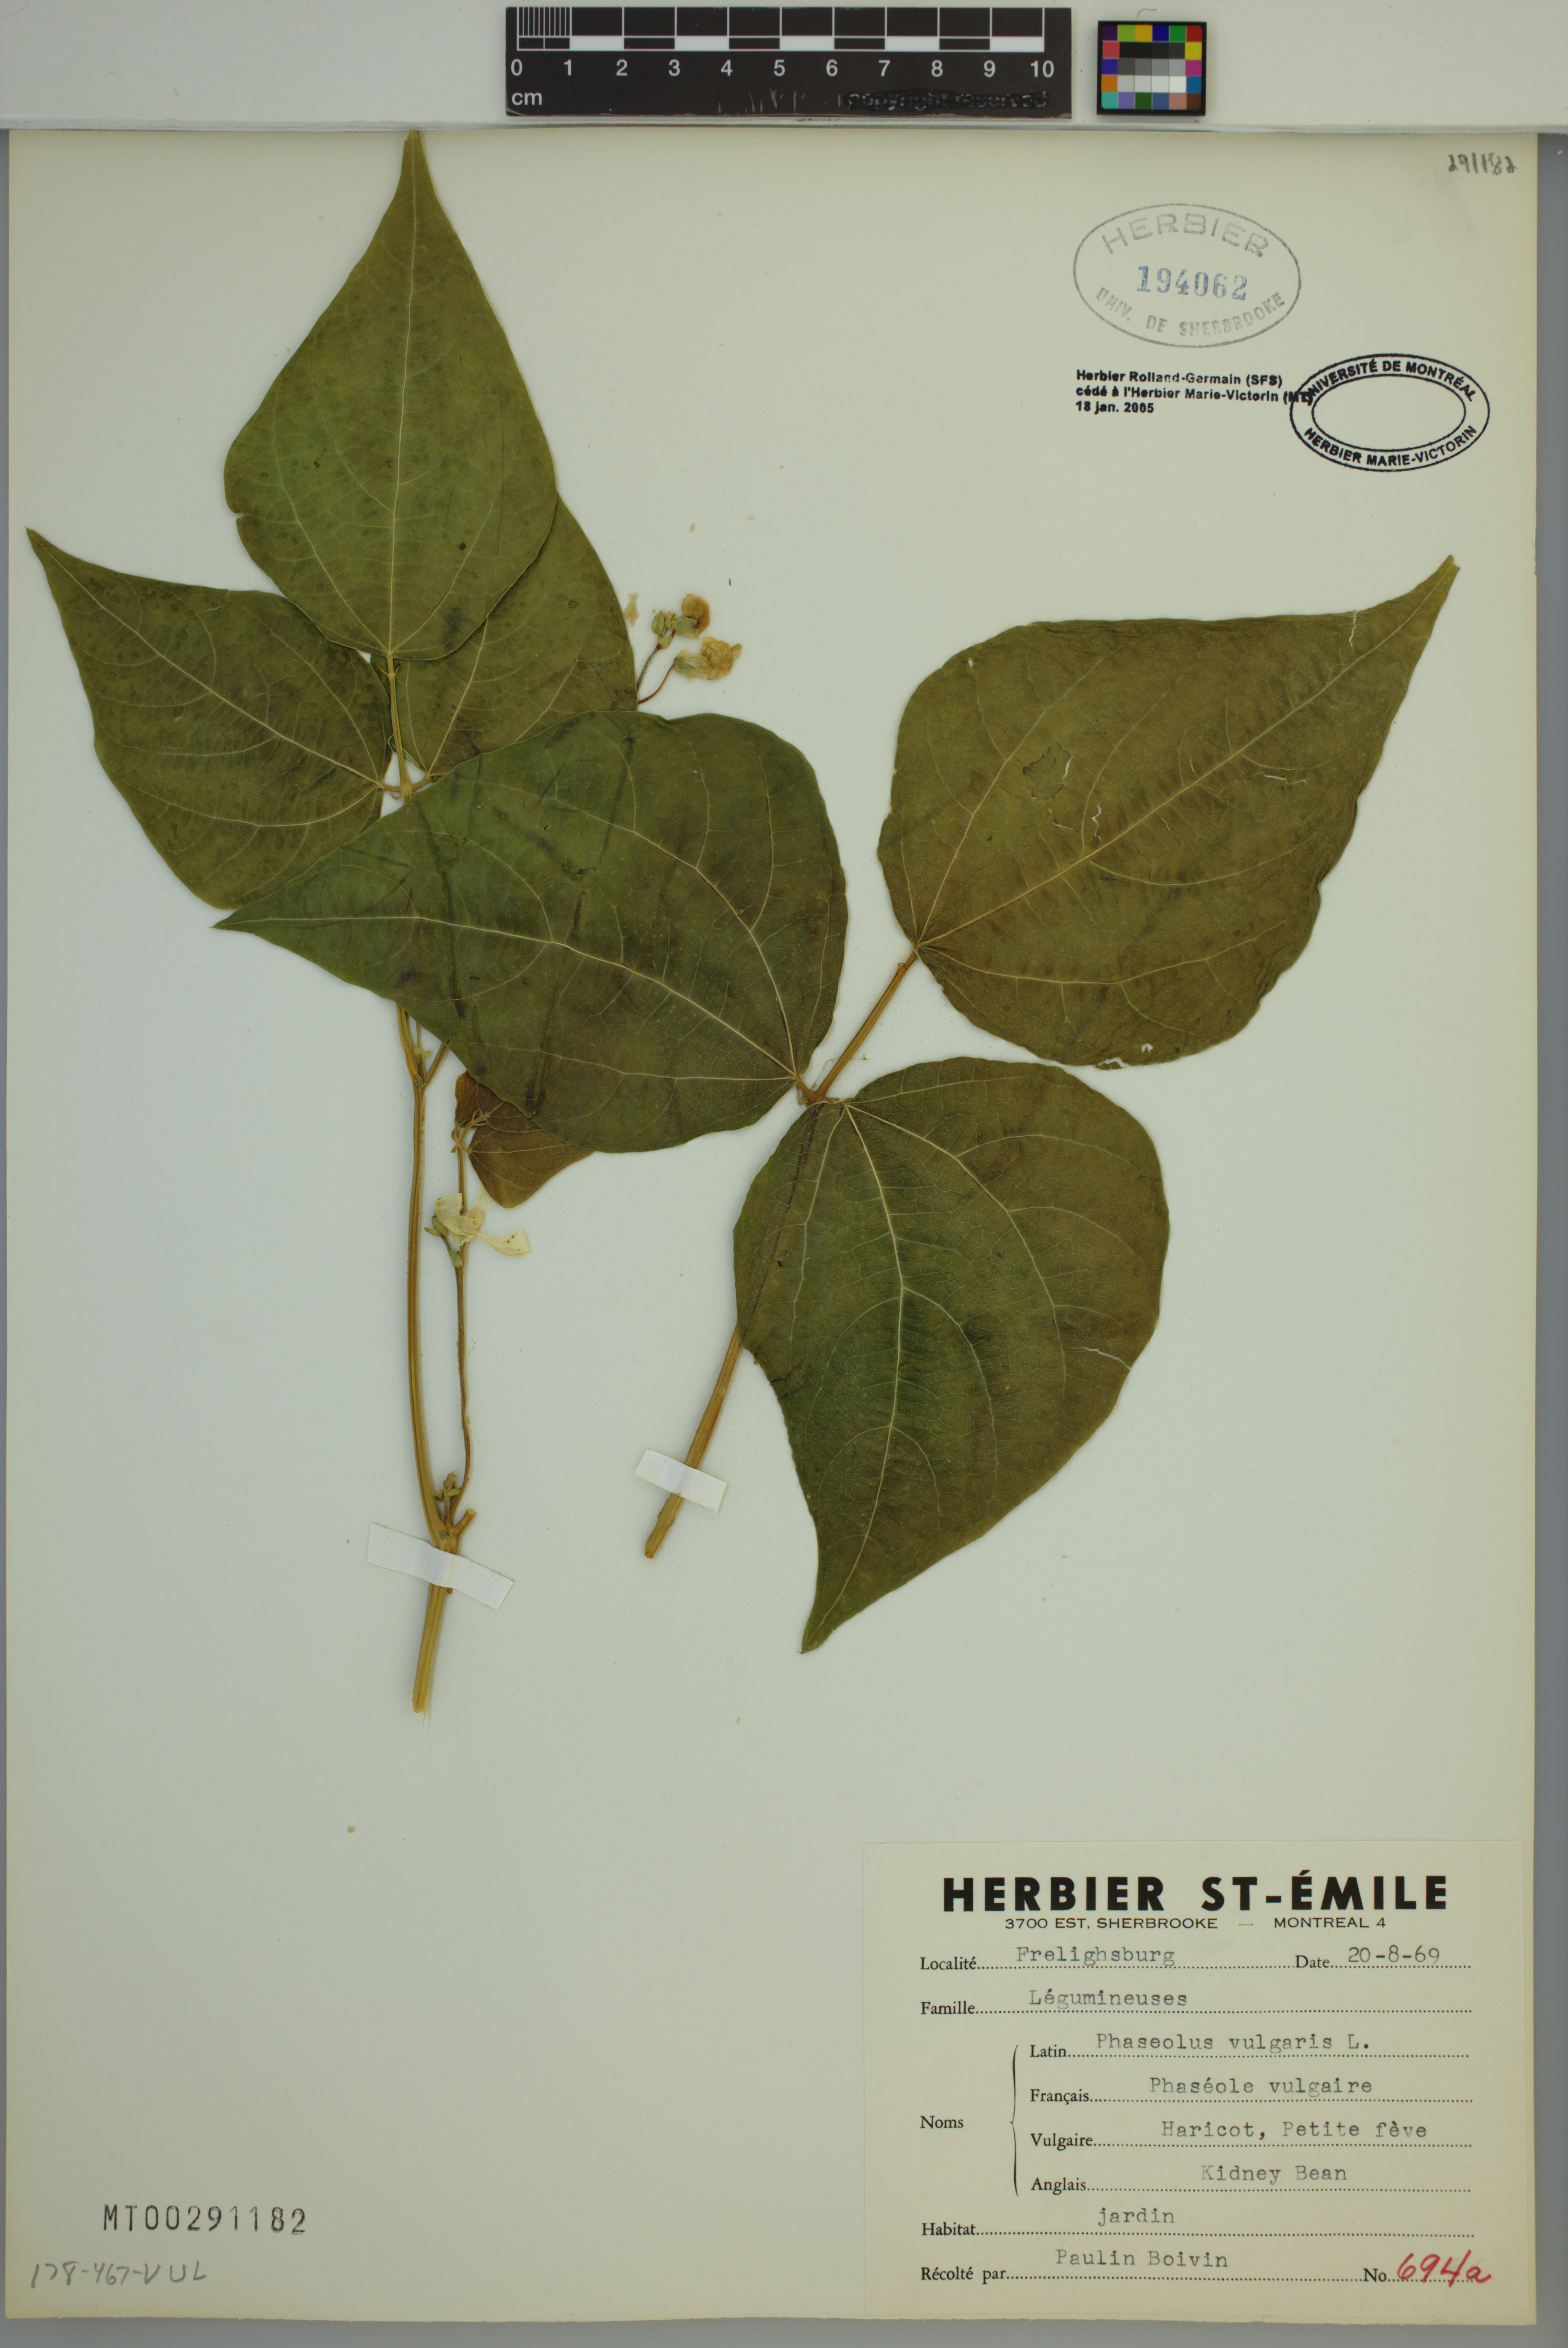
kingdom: Plantae
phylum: Tracheophyta
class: Magnoliopsida
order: Fabales
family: Fabaceae
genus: Phaseolus
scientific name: Phaseolus vulgaris
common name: Bean
